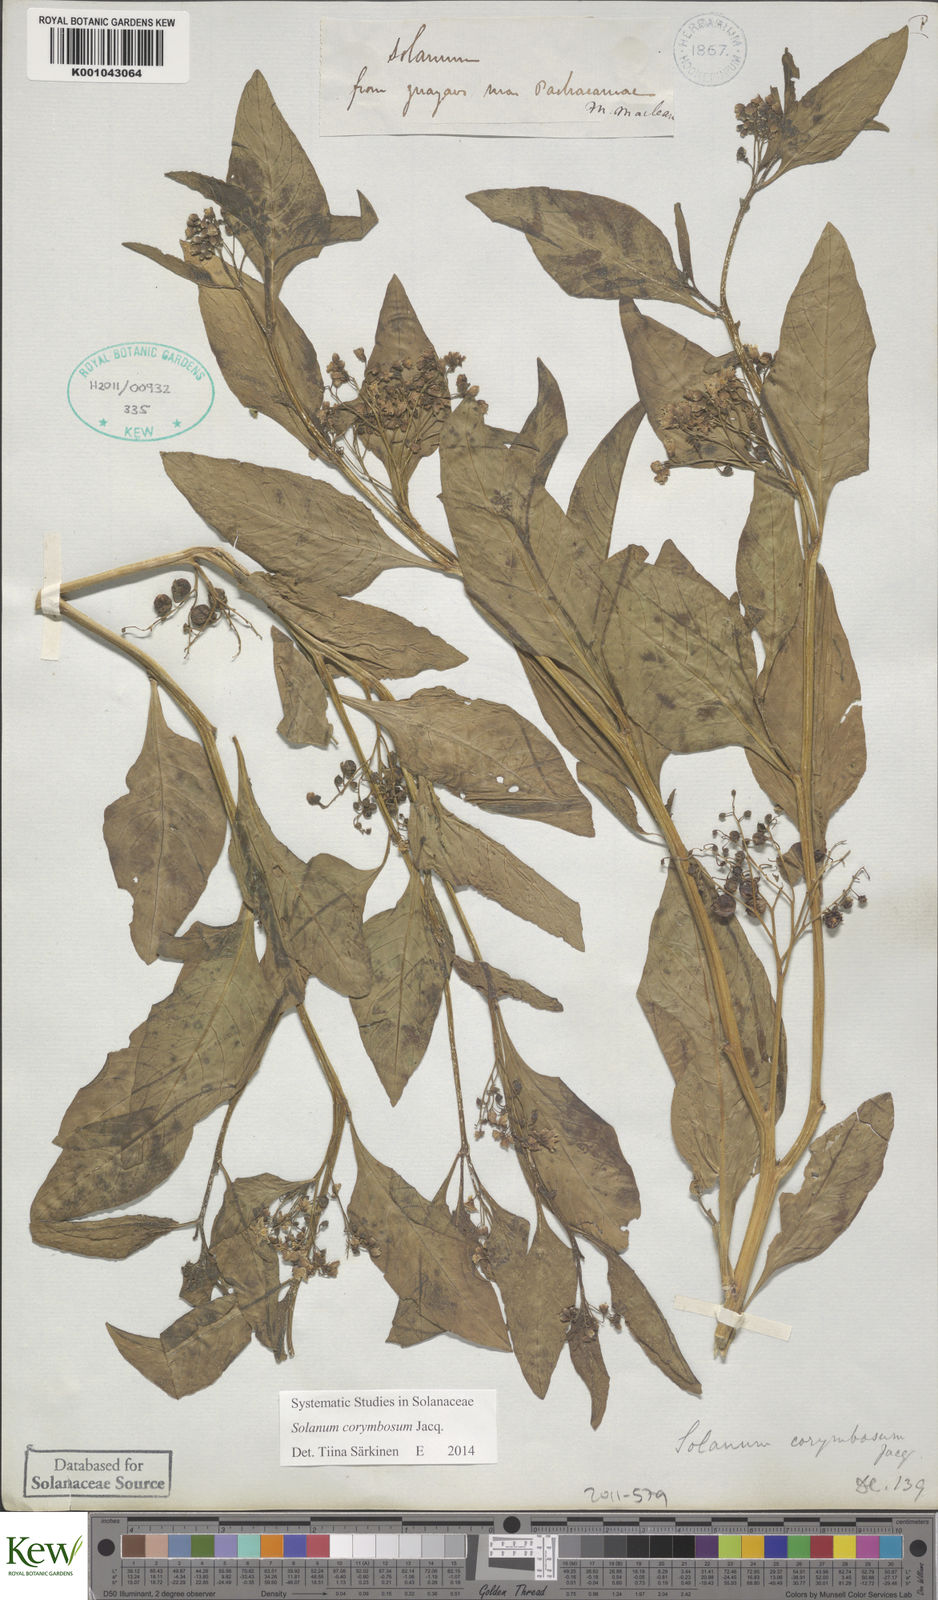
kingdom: Plantae
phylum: Tracheophyta
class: Magnoliopsida
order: Solanales
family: Solanaceae
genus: Solanum
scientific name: Solanum corymbosum
